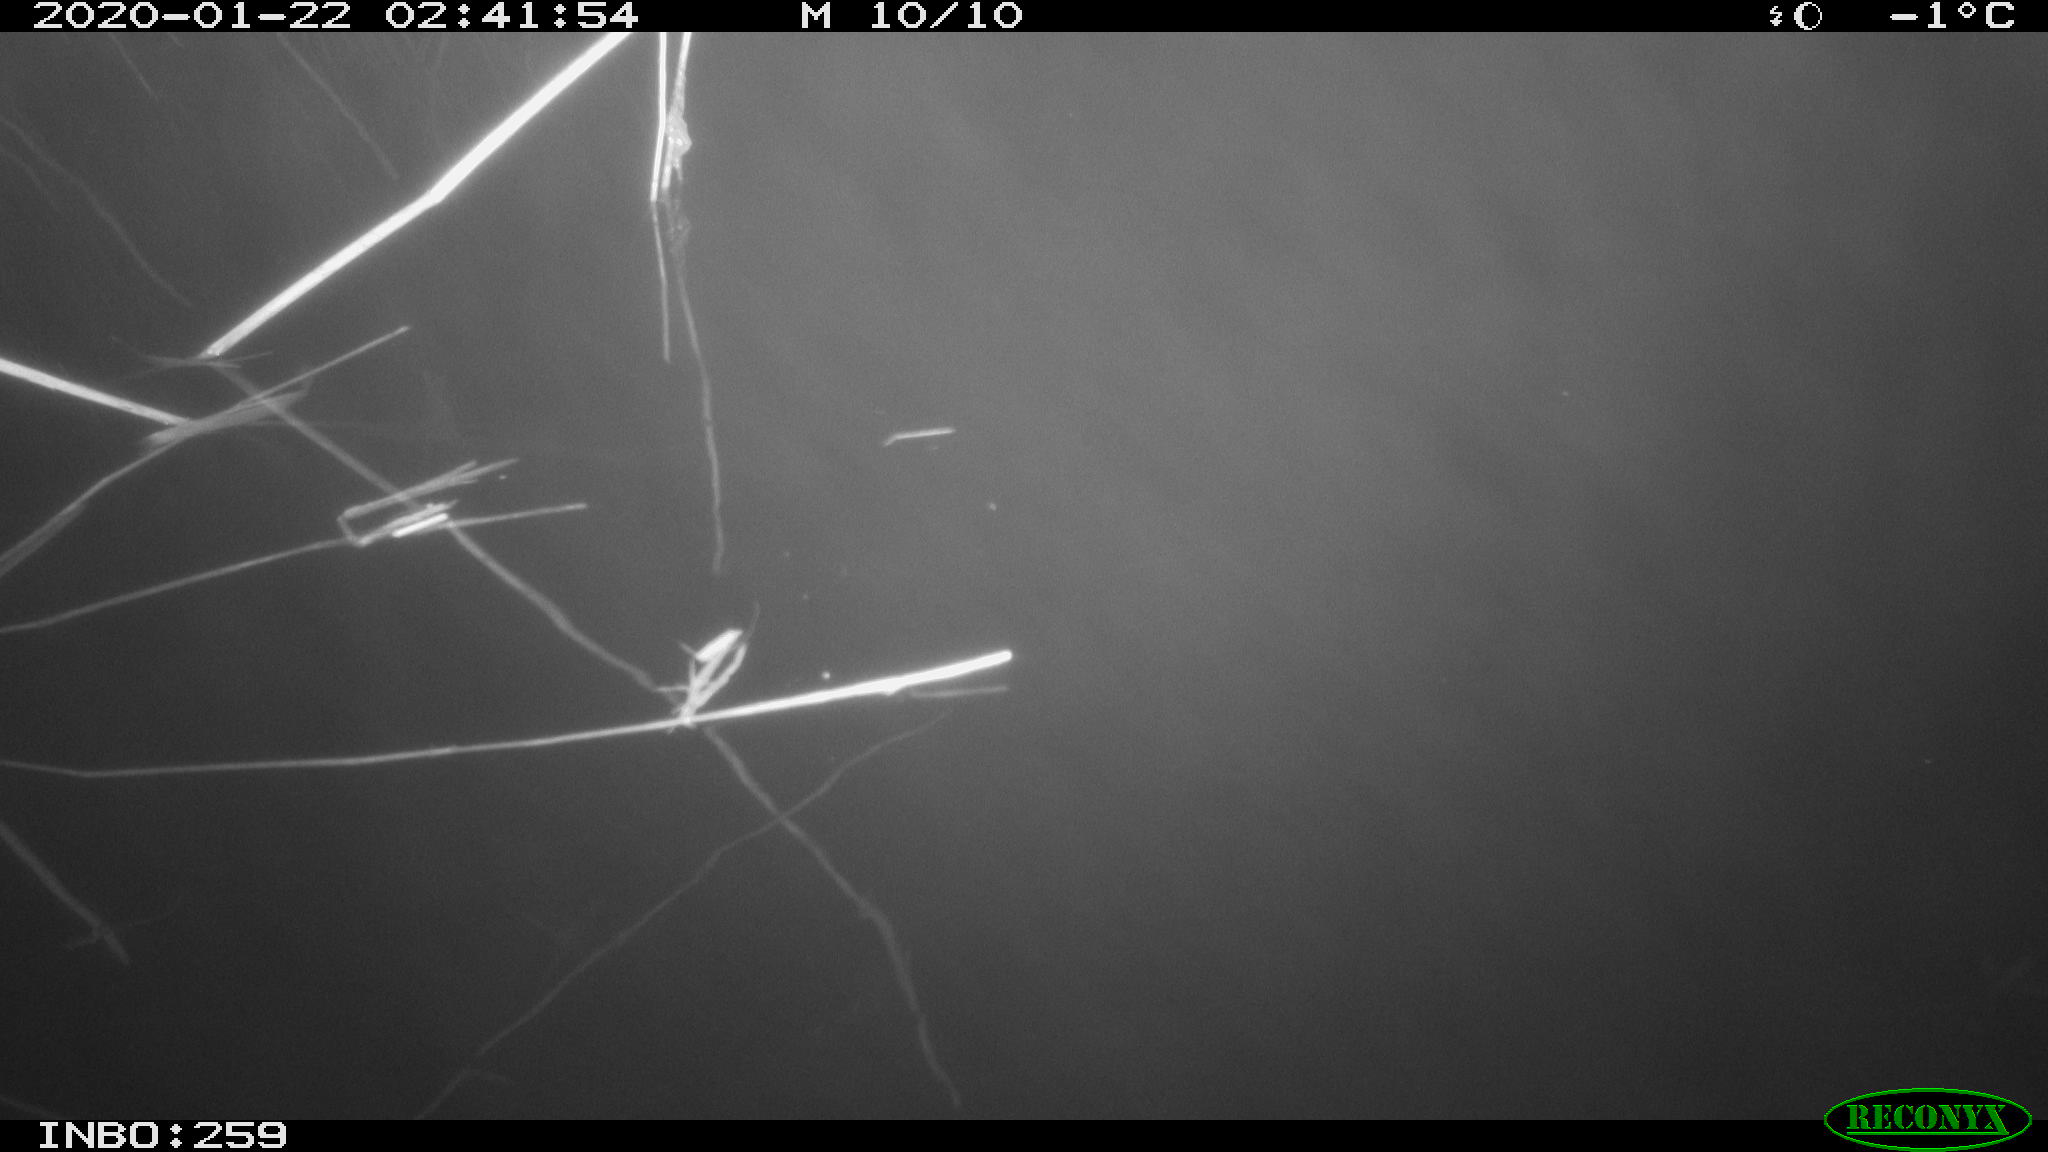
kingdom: Animalia
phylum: Chordata
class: Mammalia
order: Rodentia
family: Cricetidae
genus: Ondatra
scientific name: Ondatra zibethicus
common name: Muskrat
